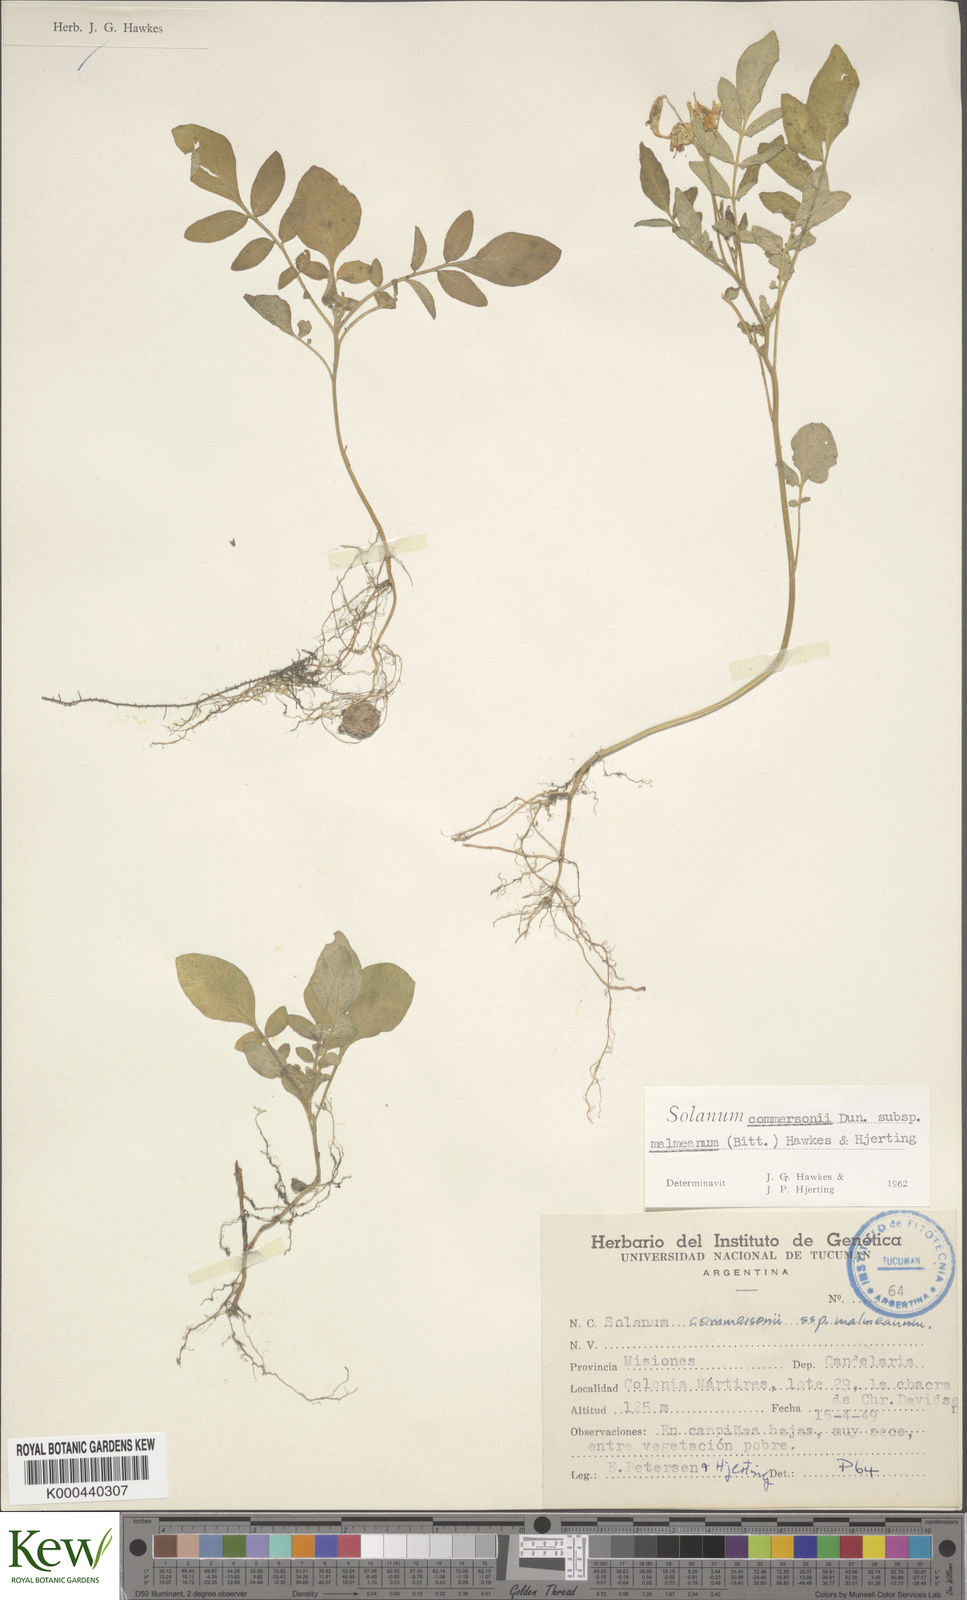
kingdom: Plantae
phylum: Tracheophyta
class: Magnoliopsida
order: Solanales
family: Solanaceae
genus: Solanum
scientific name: Solanum malmeanum
